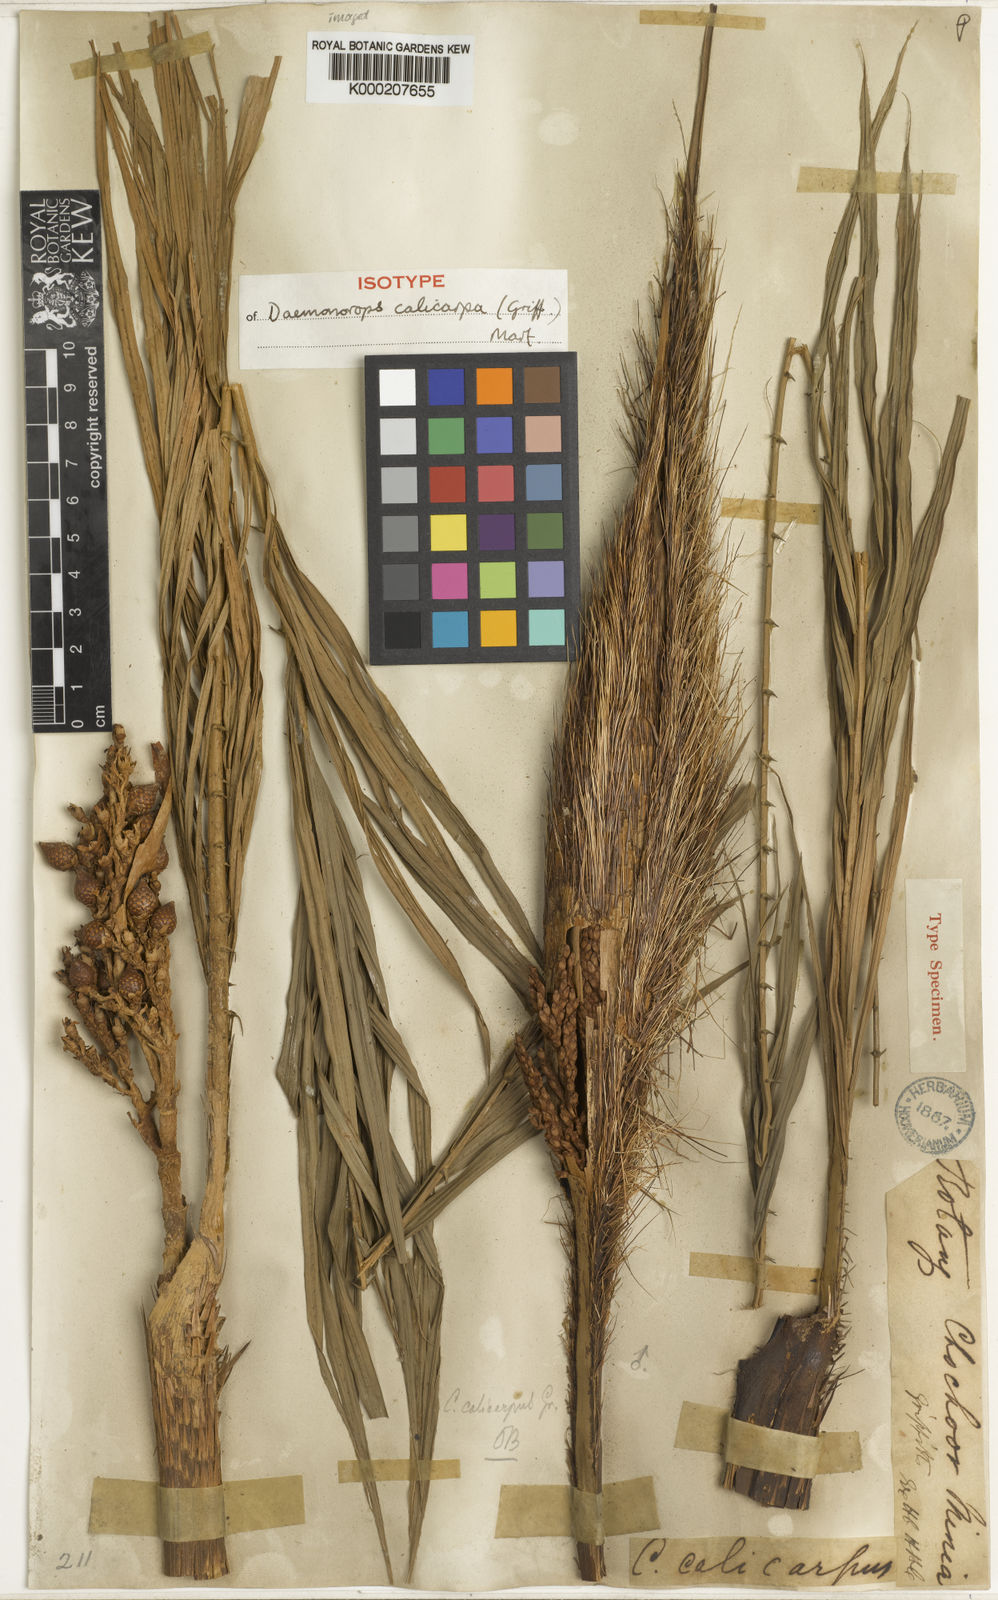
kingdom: Plantae
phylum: Tracheophyta
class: Liliopsida
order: Arecales
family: Arecaceae
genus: Calamus
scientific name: Calamus calicarpus
